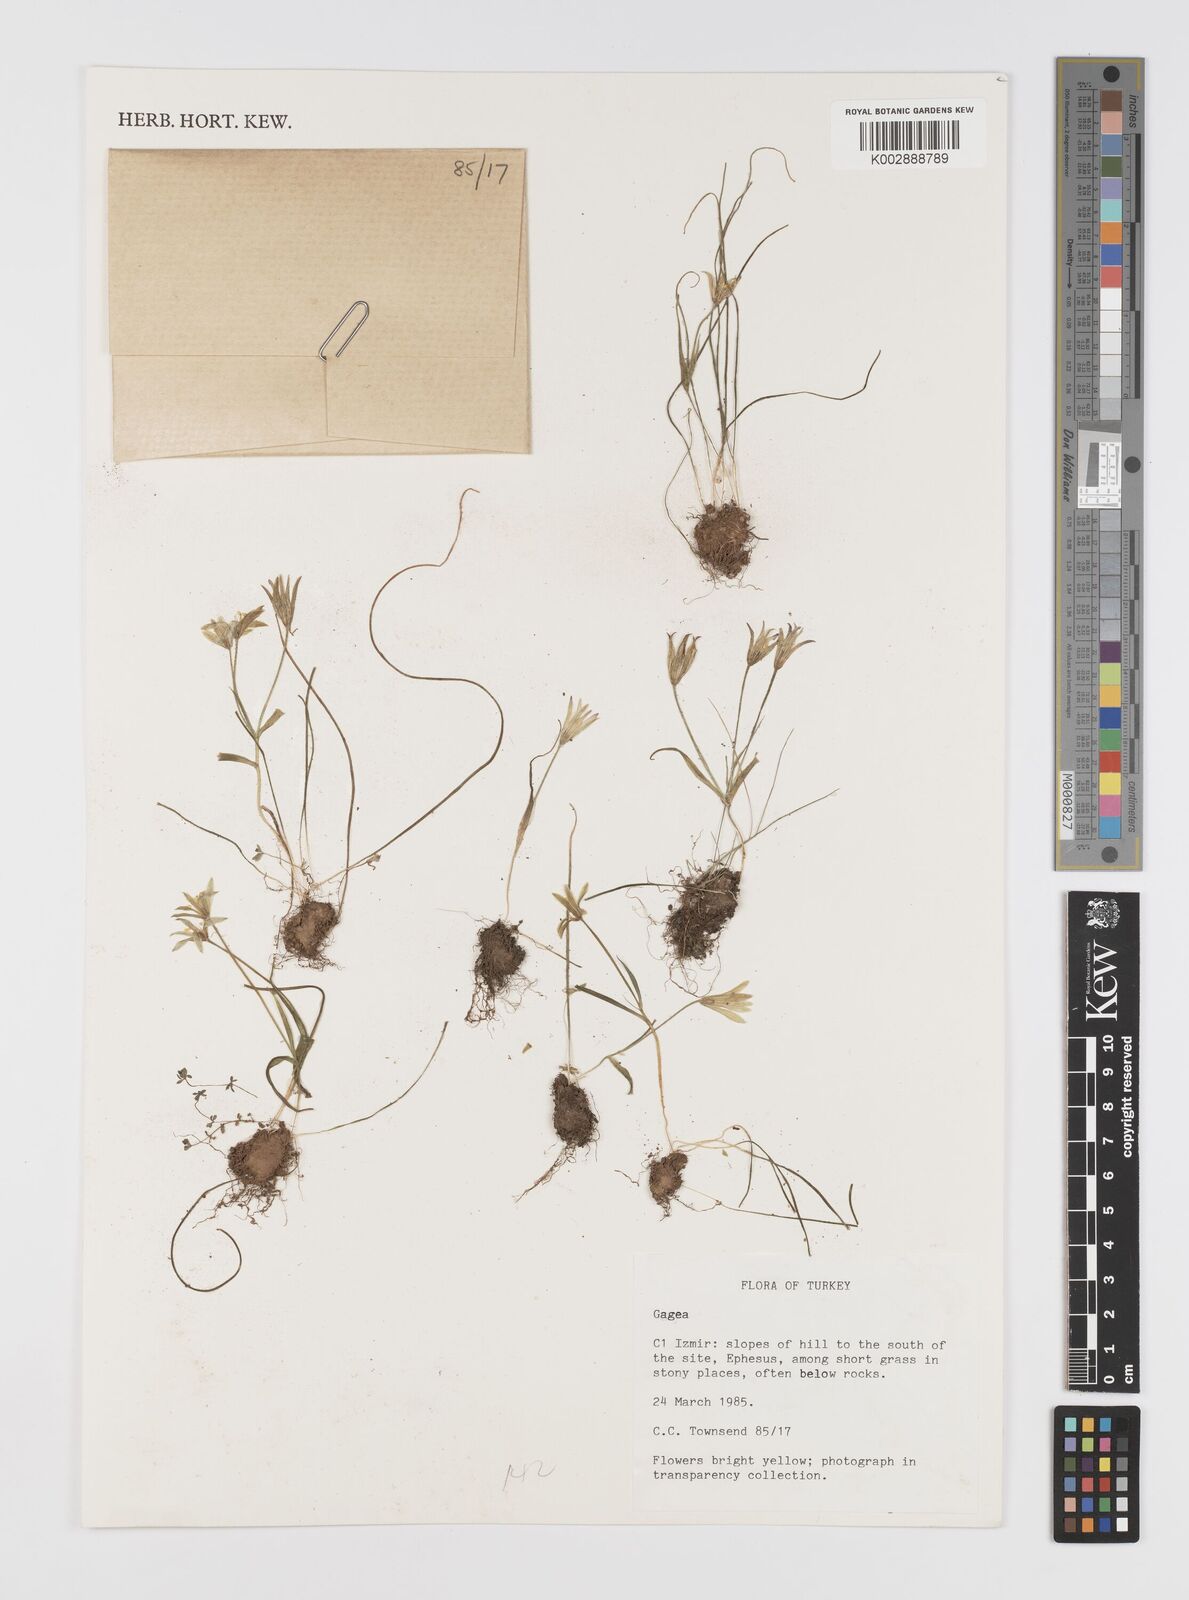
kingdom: Plantae
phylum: Tracheophyta
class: Liliopsida
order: Liliales
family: Liliaceae
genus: Gagea
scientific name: Gagea
